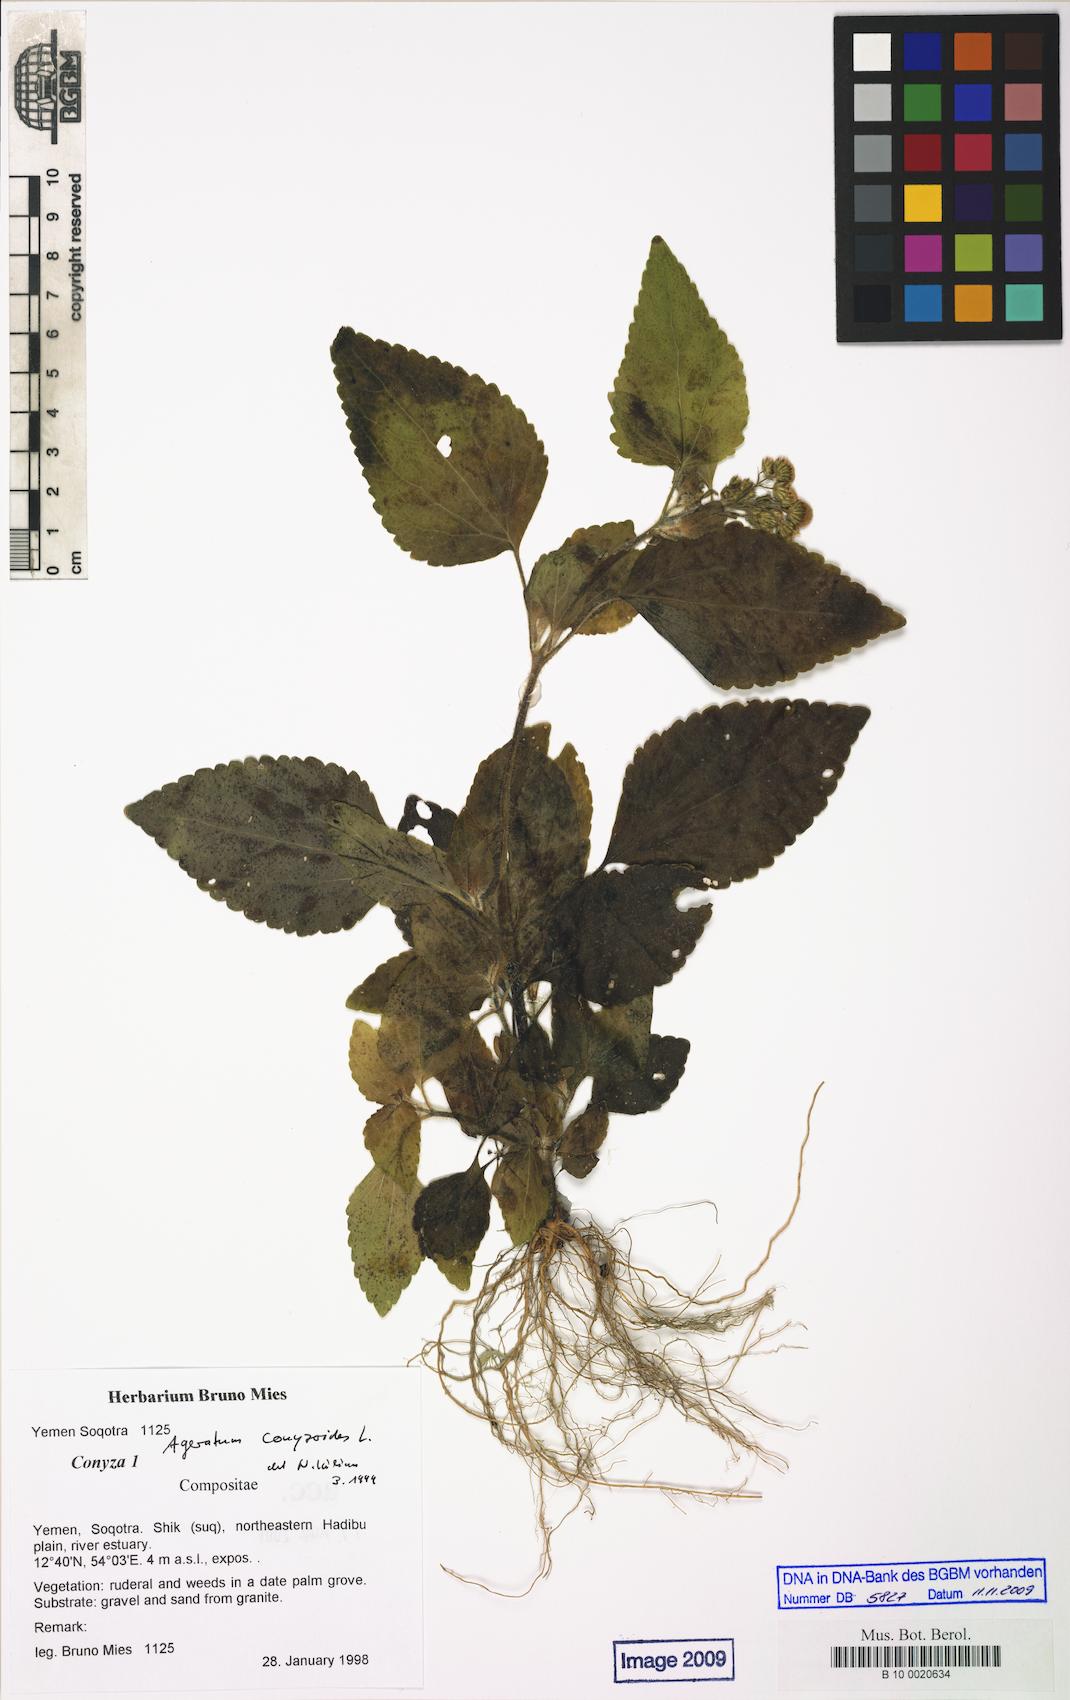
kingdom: Plantae
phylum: Tracheophyta
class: Magnoliopsida
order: Asterales
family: Asteraceae
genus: Ageratum
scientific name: Ageratum conyzoides
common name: Tropical whiteweed
